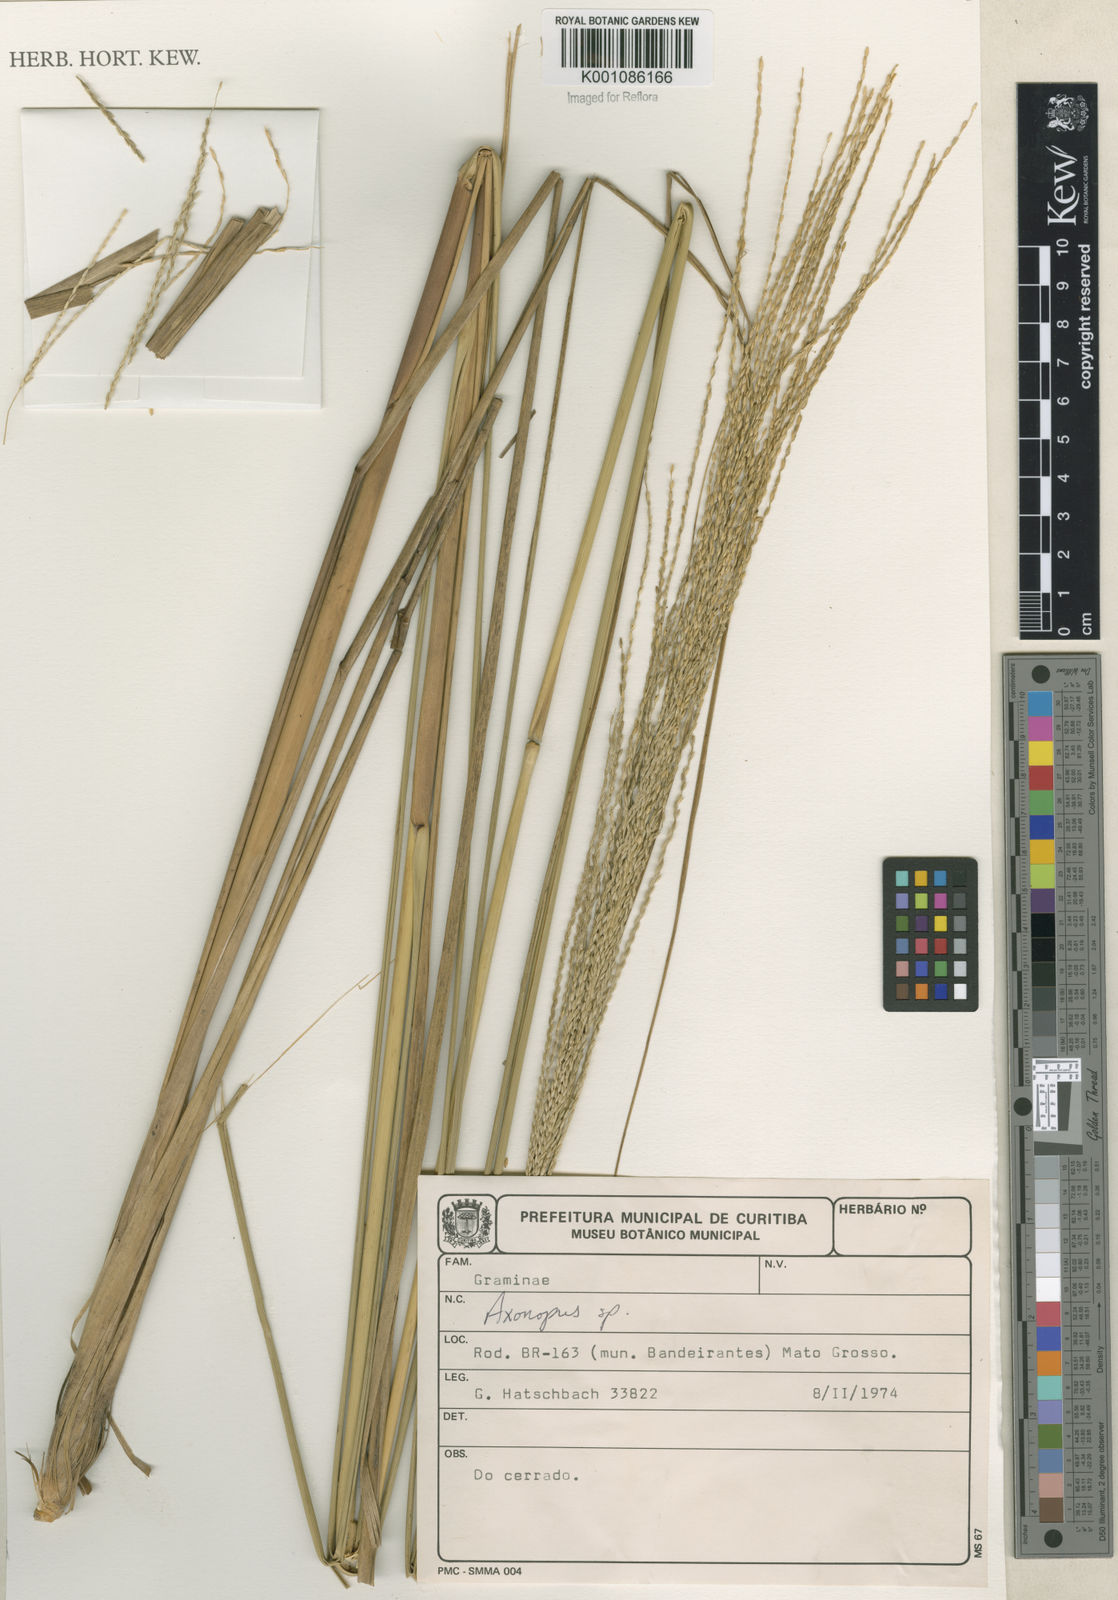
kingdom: Plantae
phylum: Tracheophyta
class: Liliopsida
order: Poales
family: Poaceae
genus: Axonopus
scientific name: Axonopus
